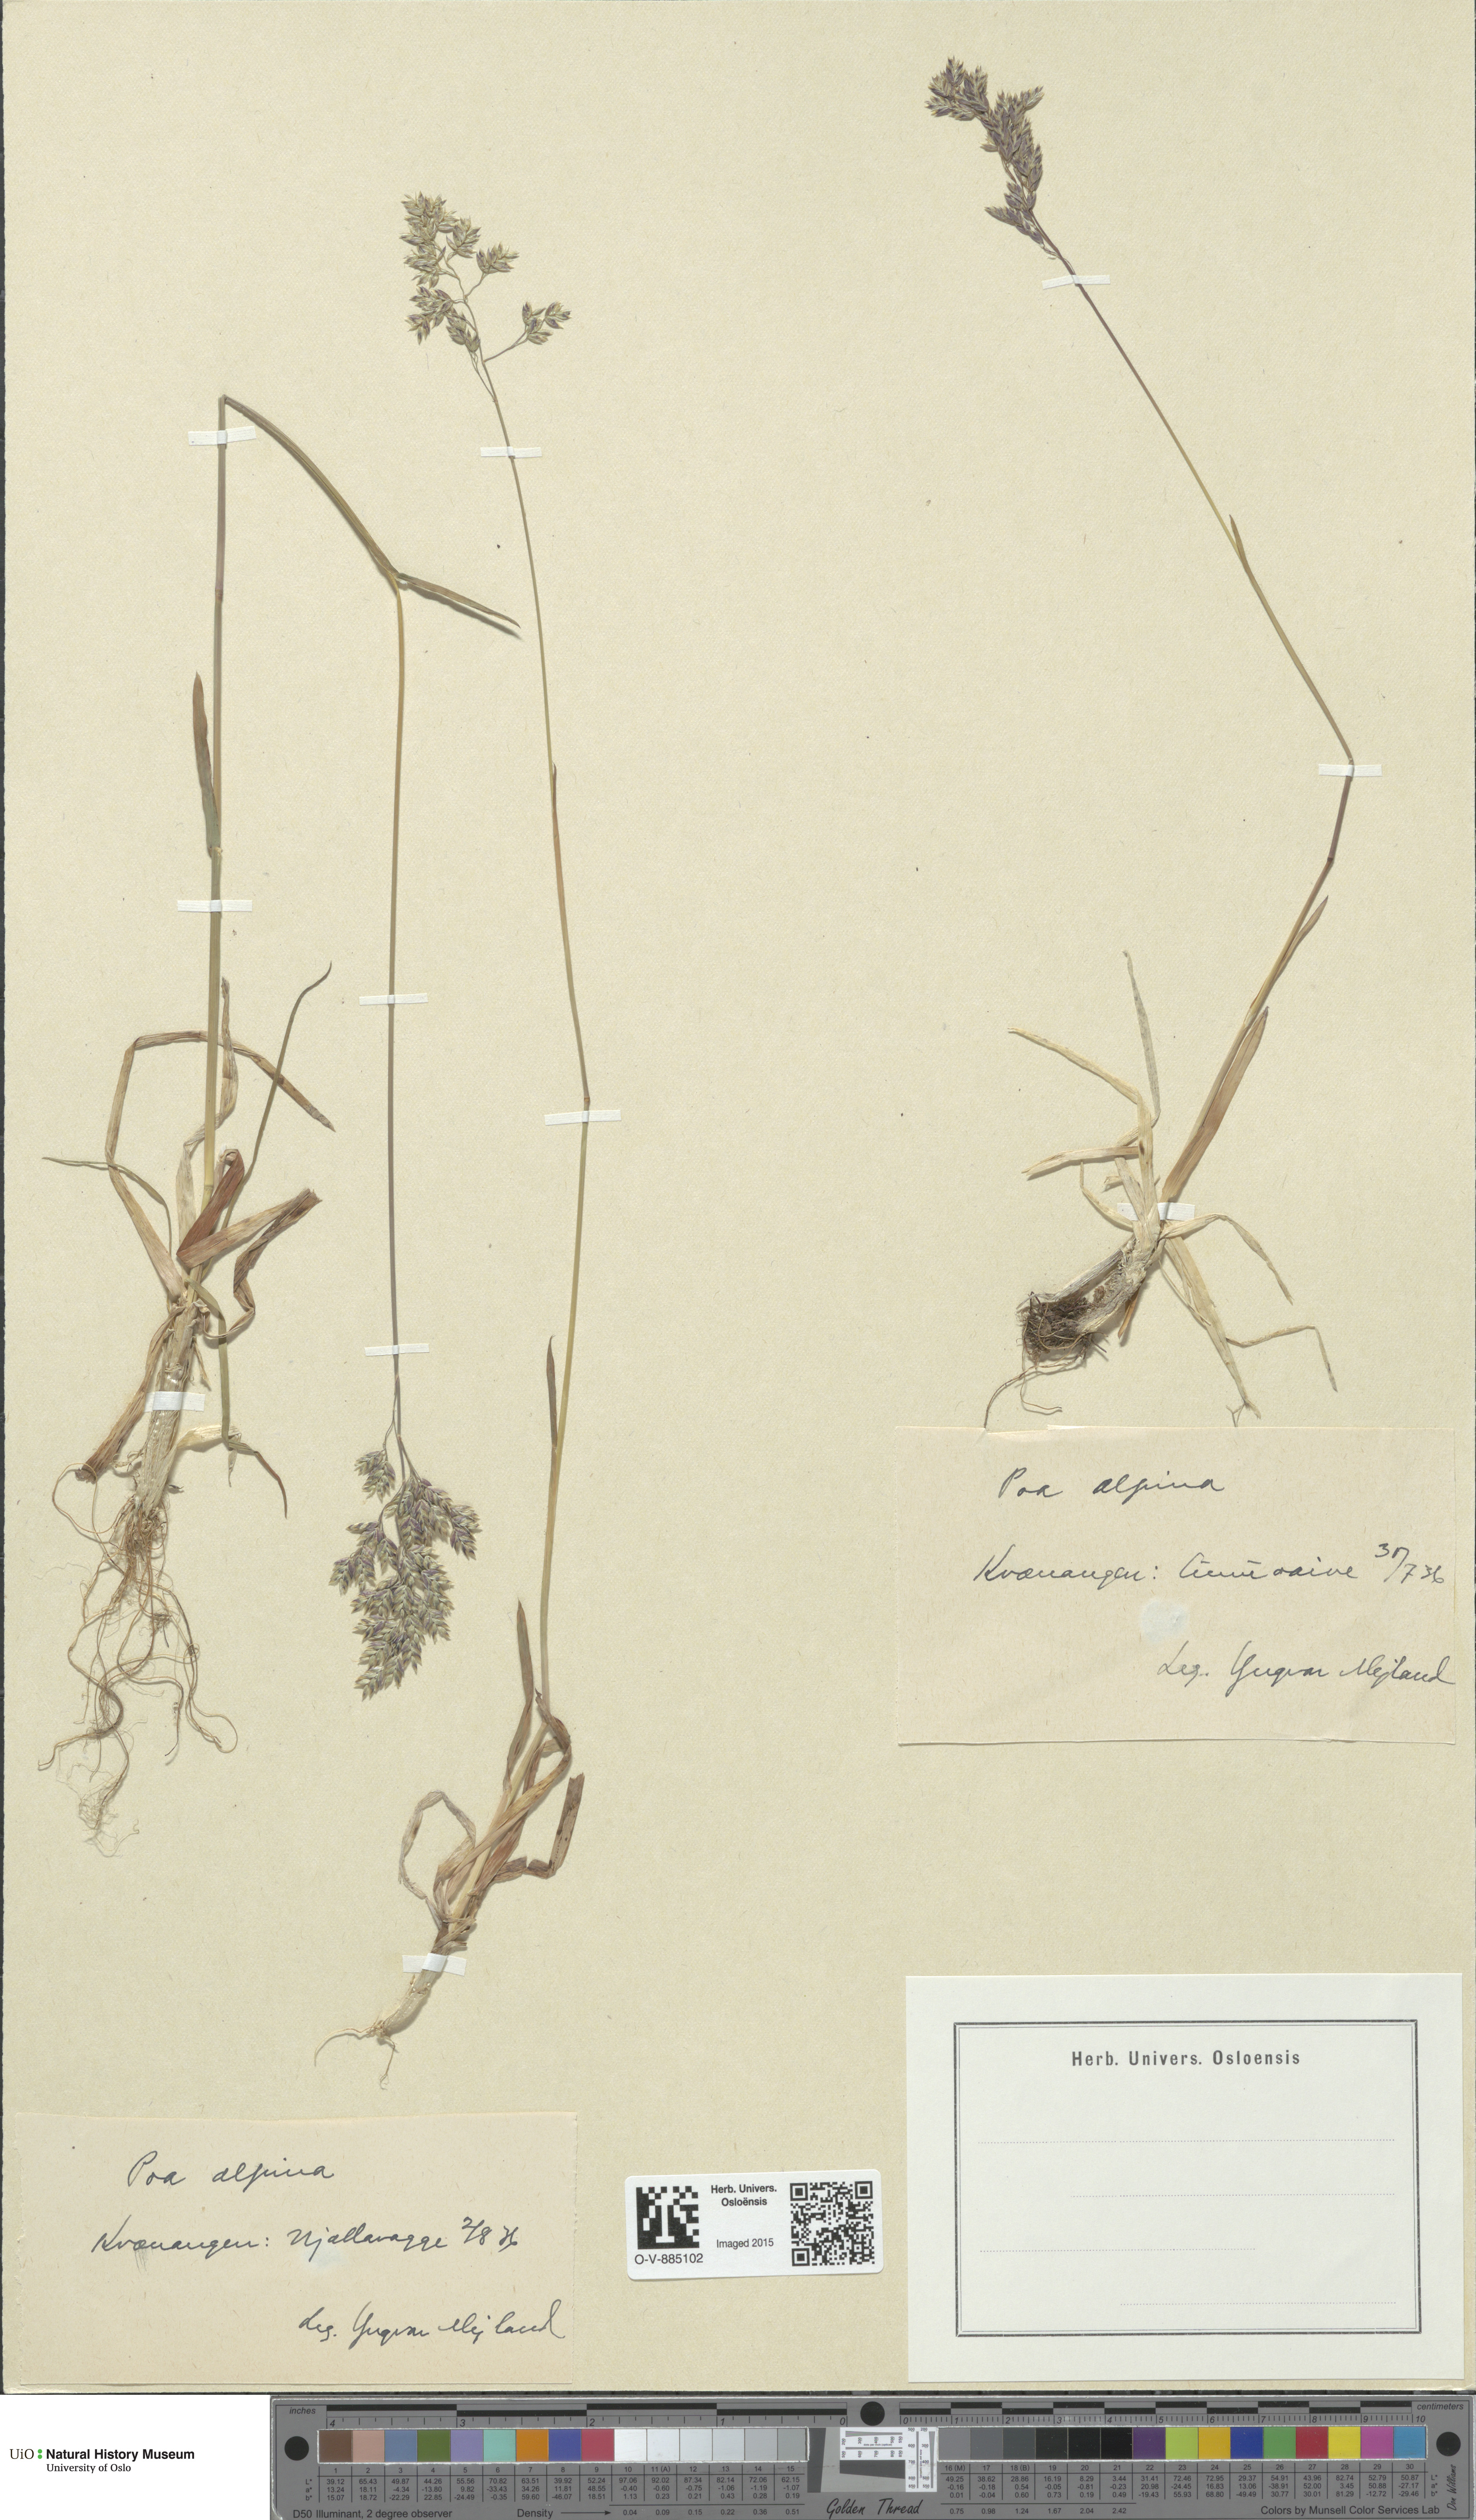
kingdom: Plantae
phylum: Tracheophyta
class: Liliopsida
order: Poales
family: Poaceae
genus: Poa
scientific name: Poa alpina
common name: Alpine bluegrass
